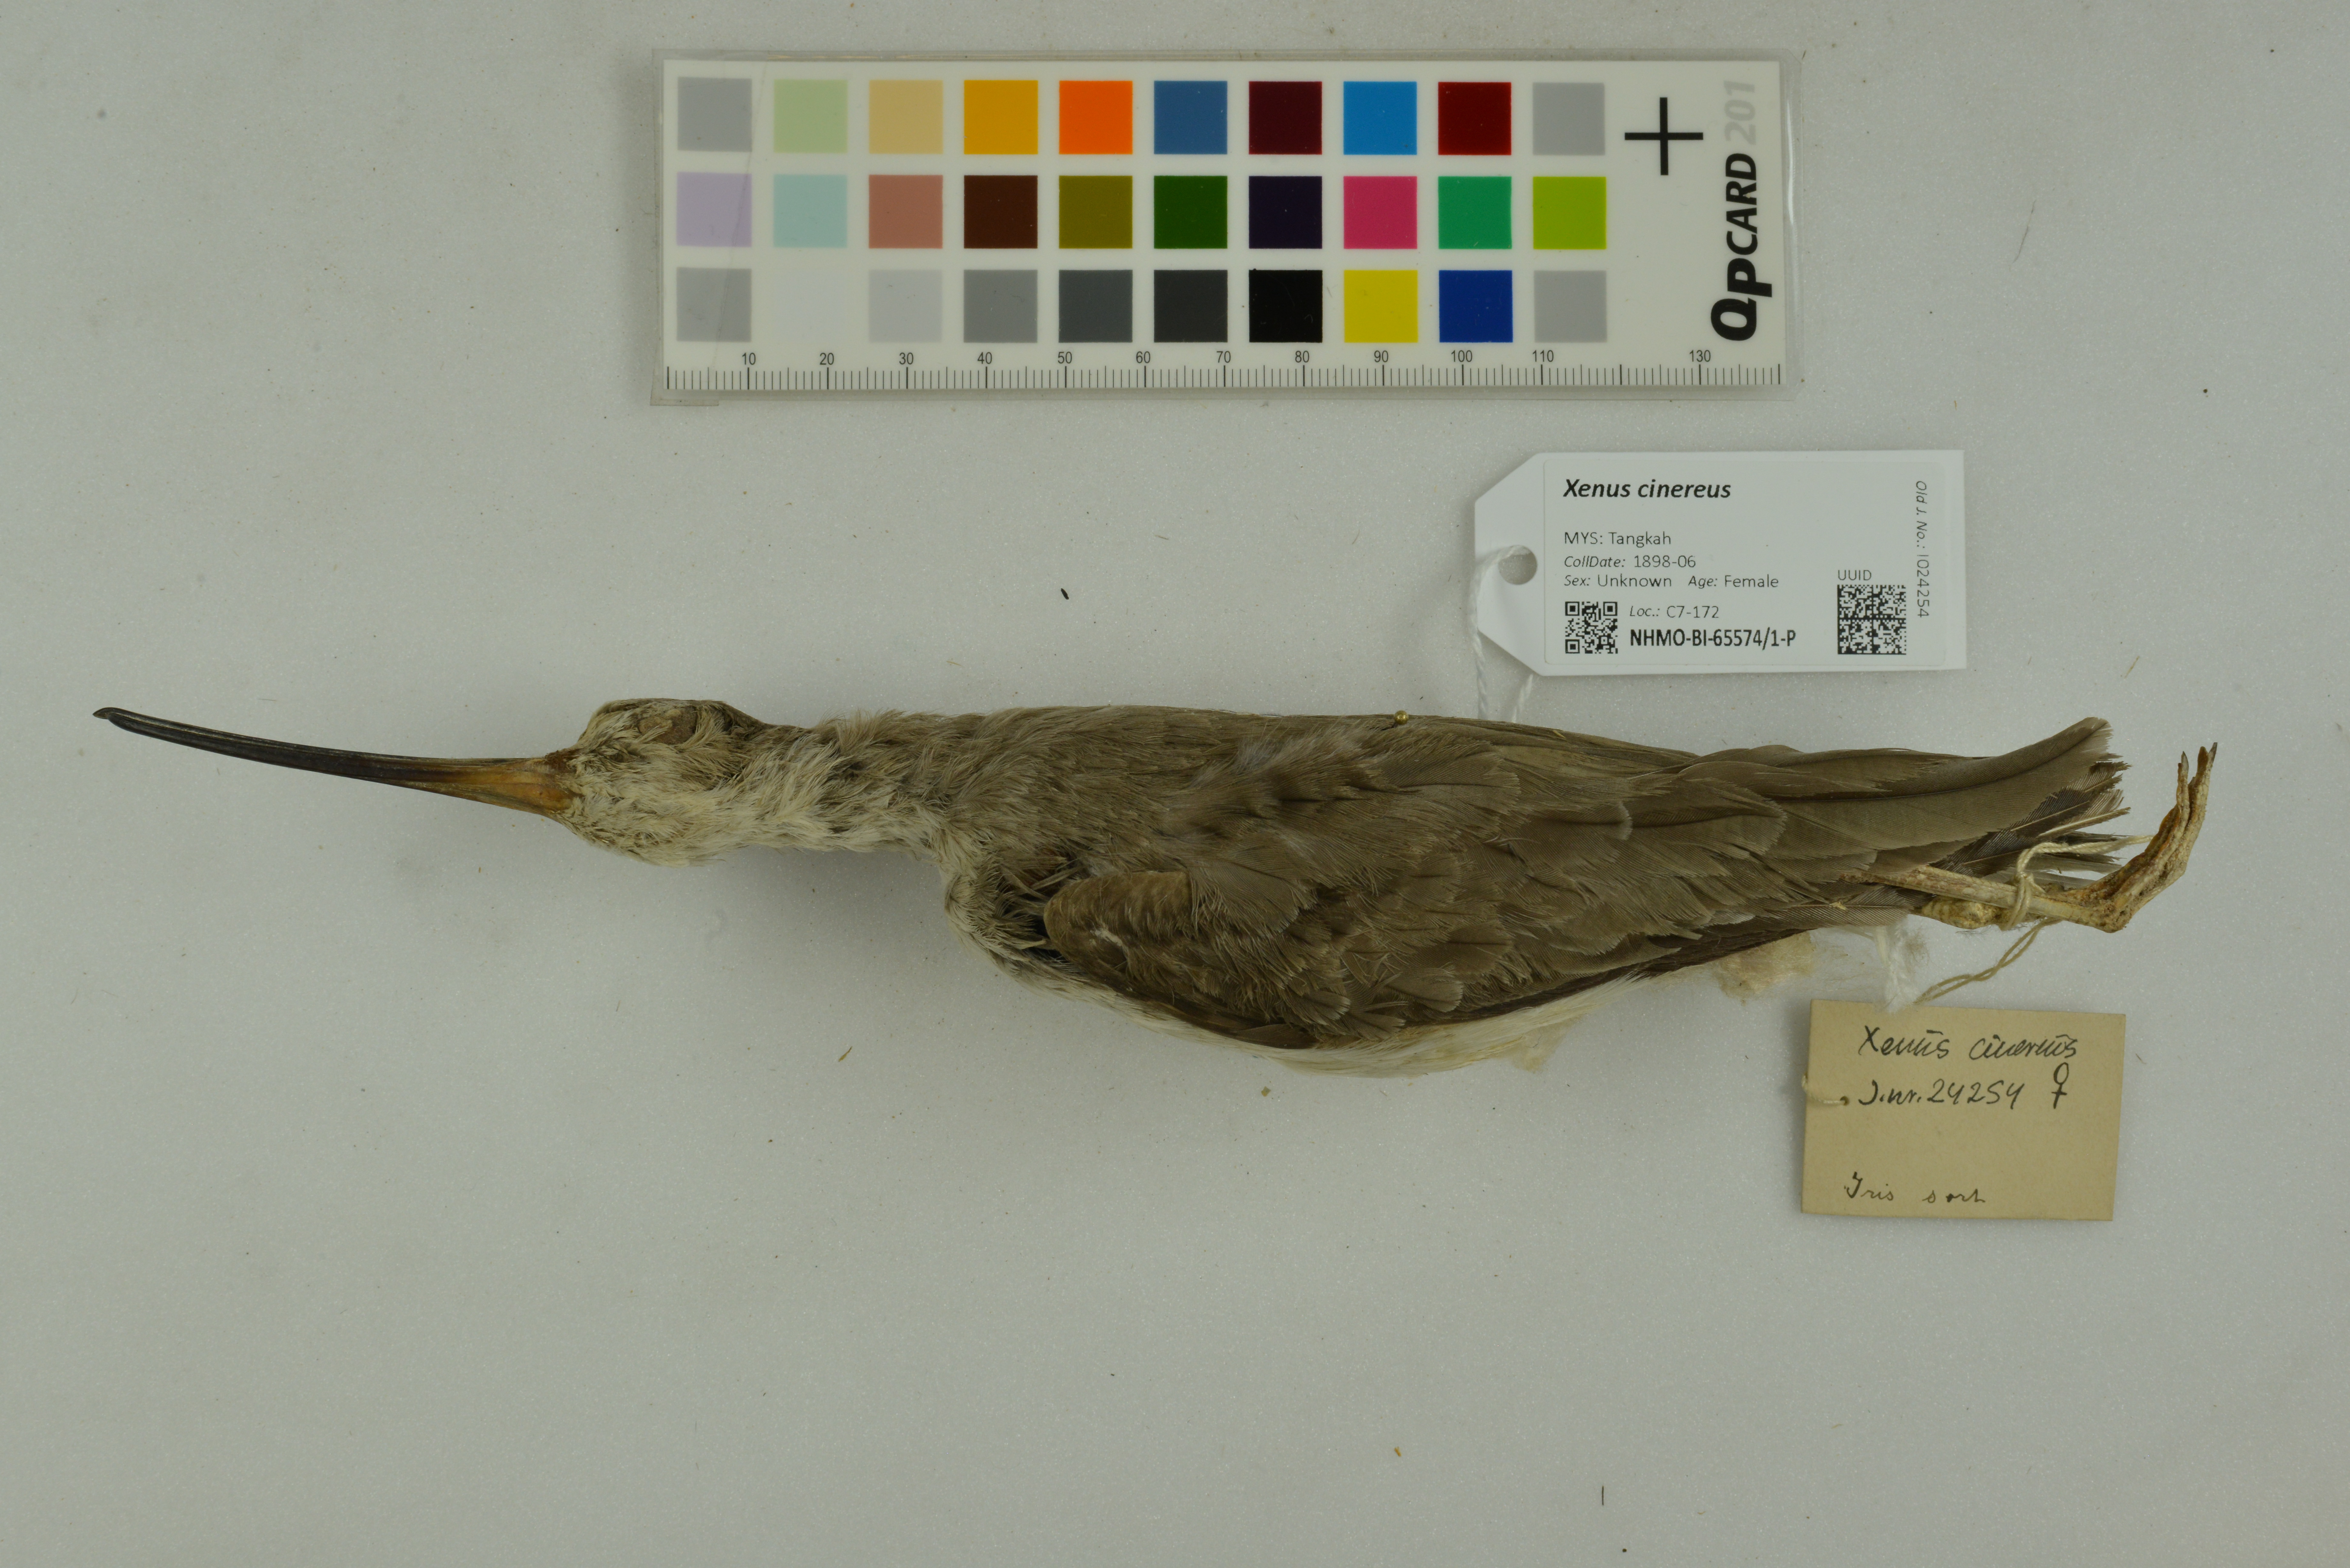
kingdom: Animalia
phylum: Chordata
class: Aves
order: Charadriiformes
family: Scolopacidae
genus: Xenus
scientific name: Xenus cinereus
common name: Terek sandpiper
